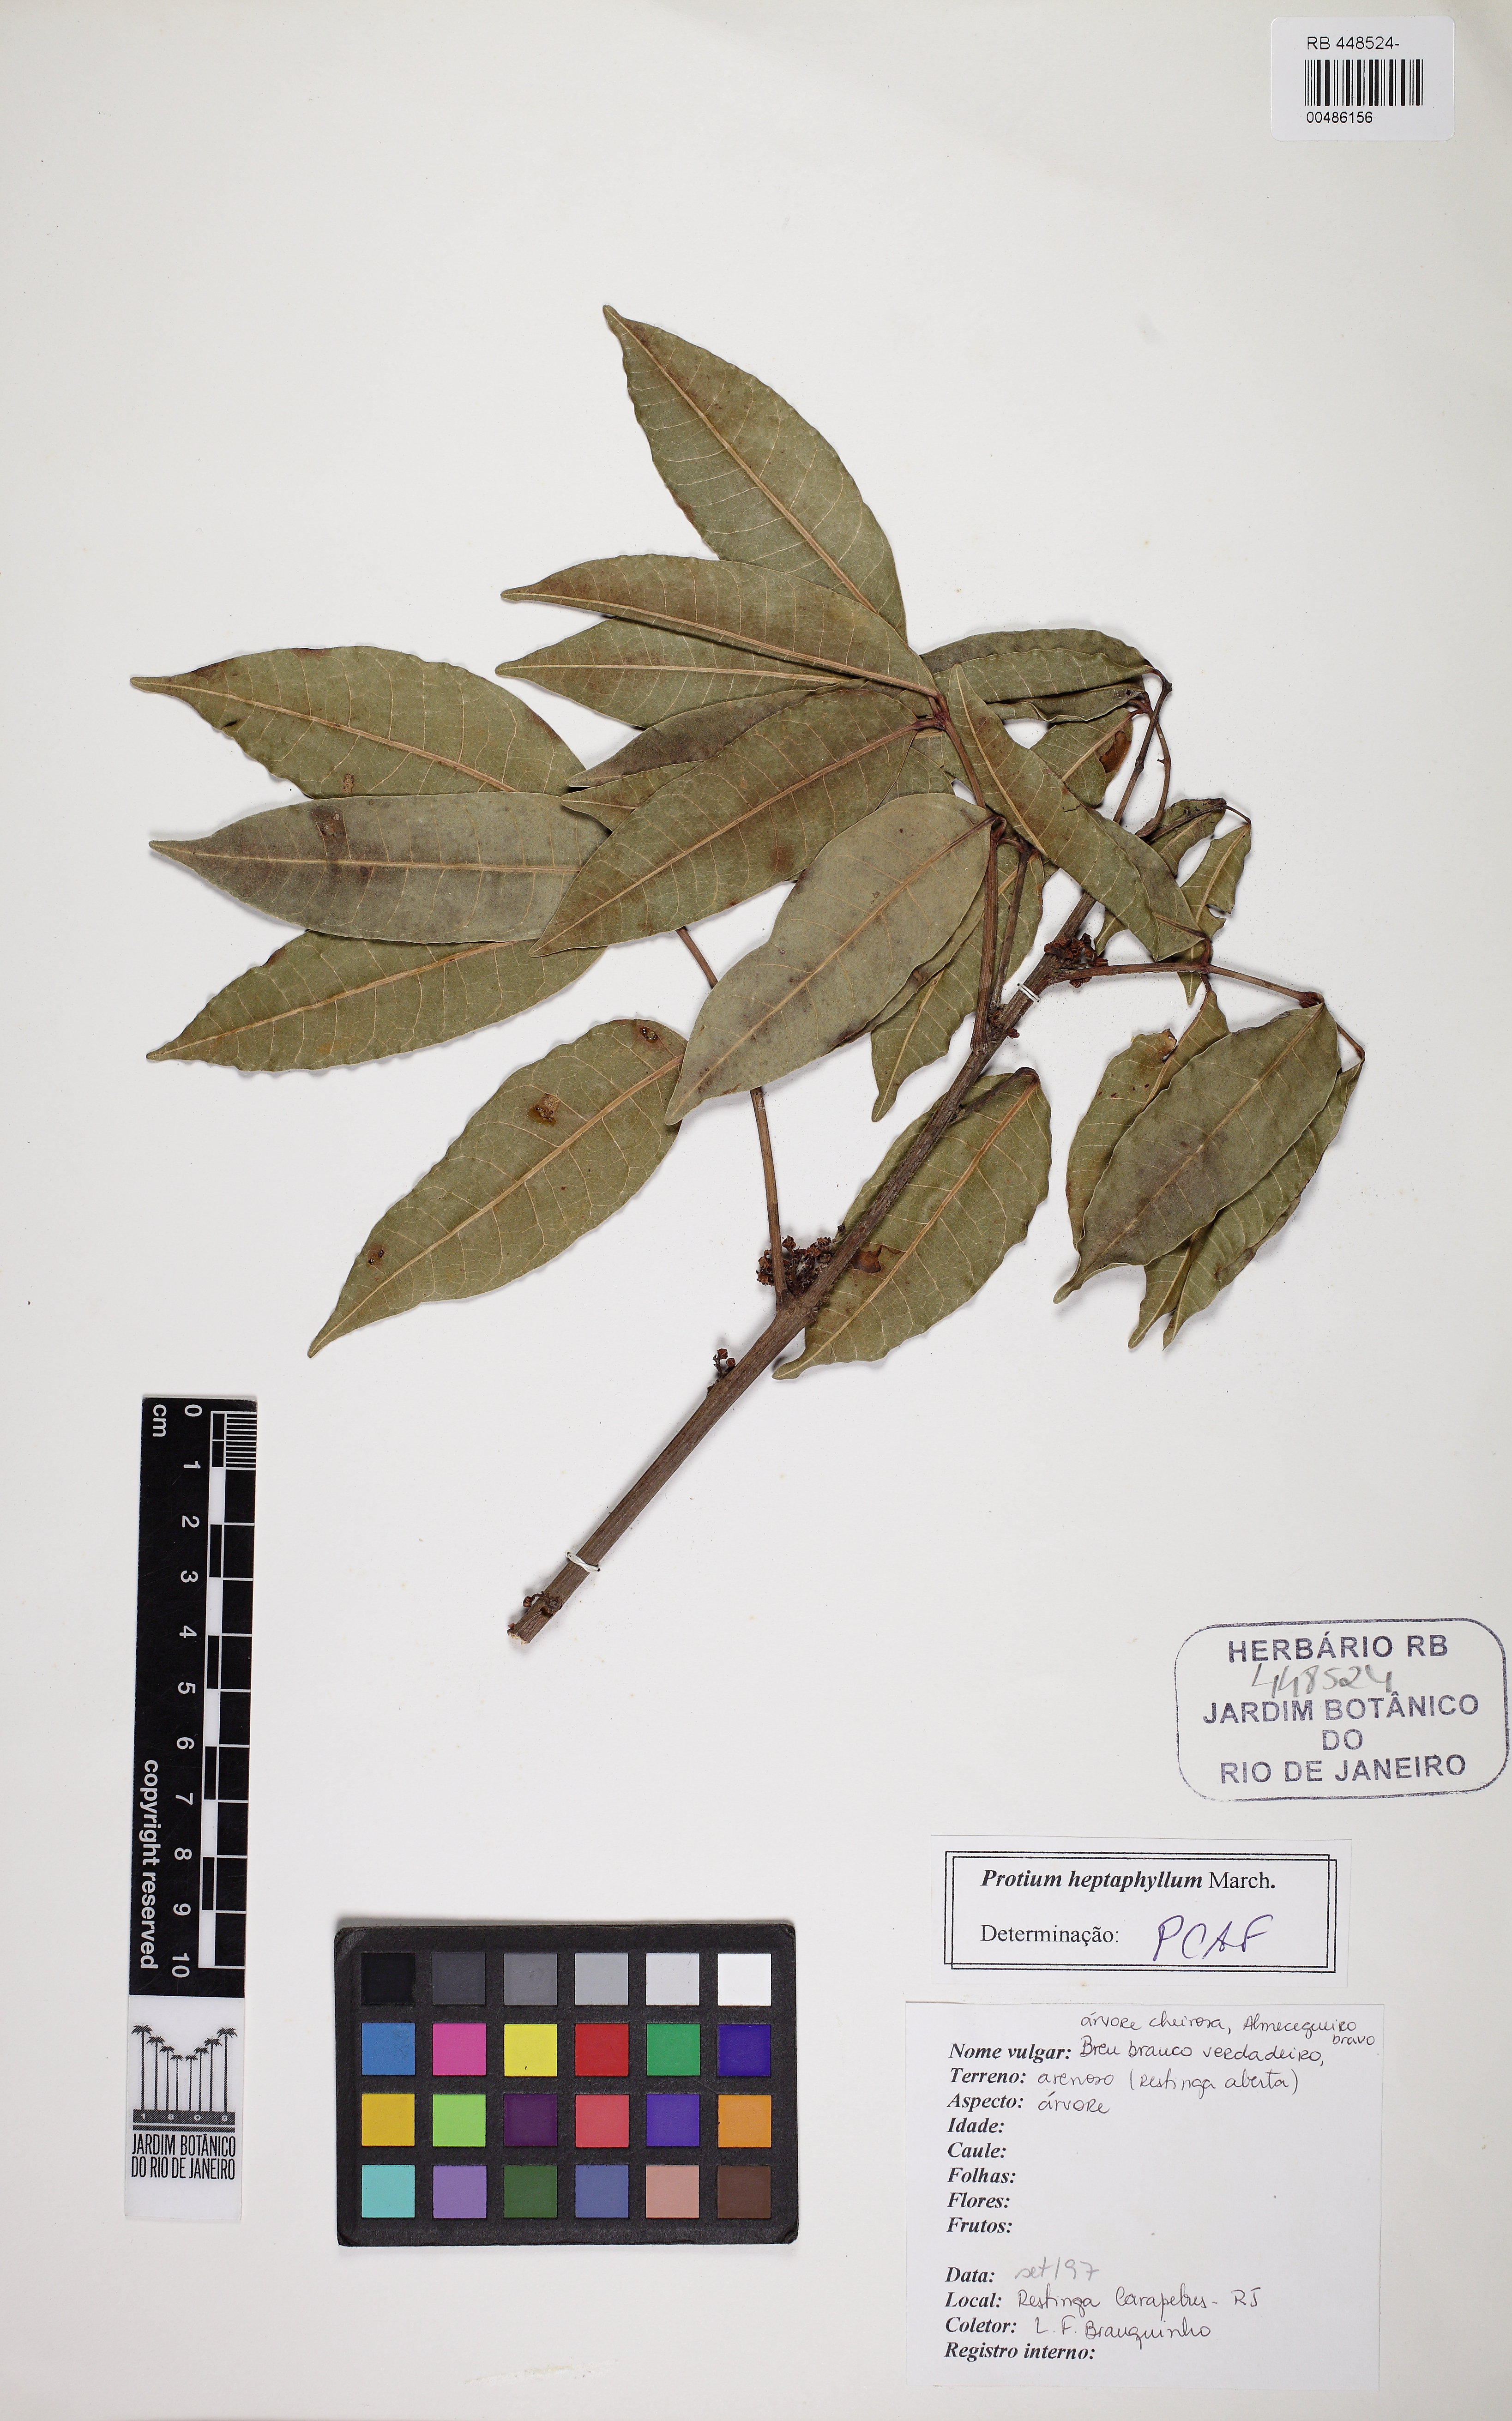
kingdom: Plantae
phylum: Tracheophyta
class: Magnoliopsida
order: Sapindales
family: Burseraceae
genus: Protium
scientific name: Protium heptaphyllum
